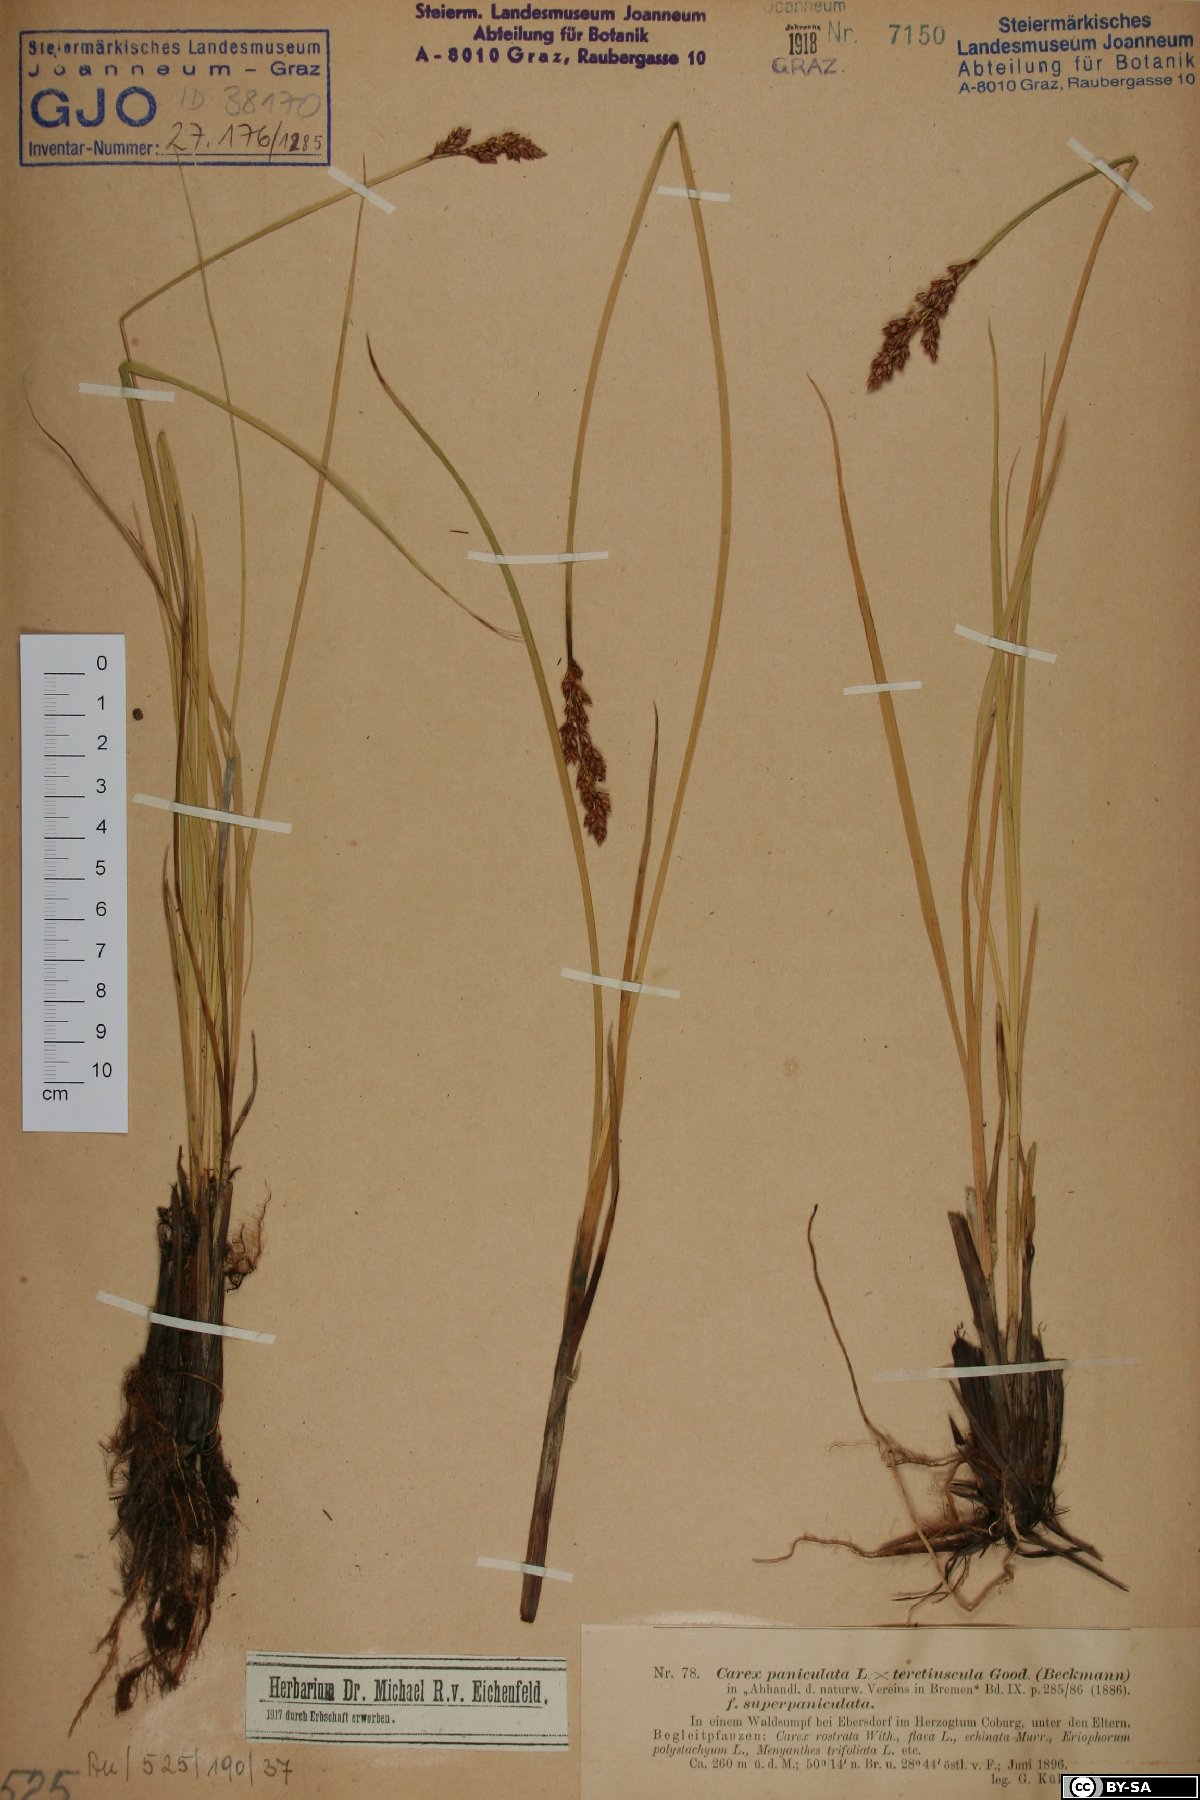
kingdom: Plantae
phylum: Tracheophyta
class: Liliopsida
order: Poales
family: Cyperaceae
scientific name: Cyperaceae
